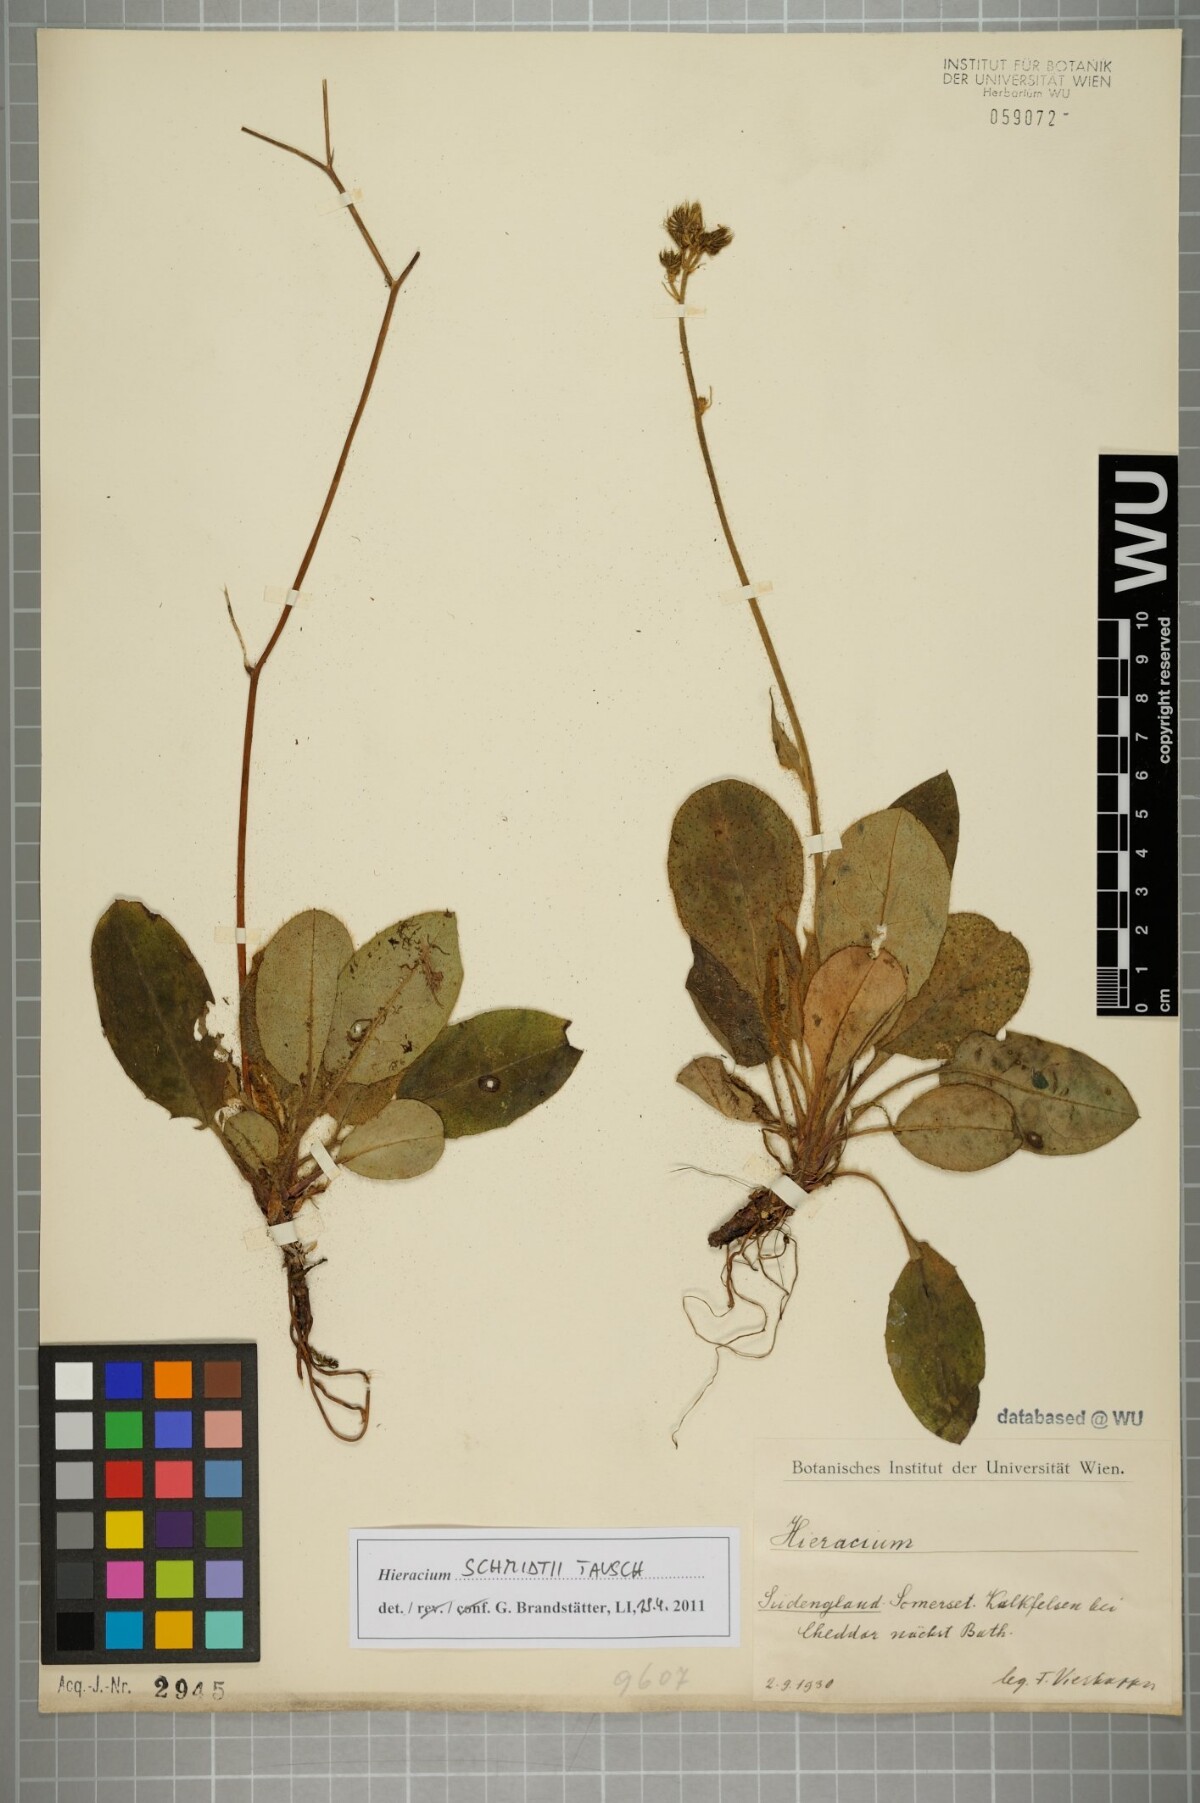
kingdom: Plantae
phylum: Tracheophyta
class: Magnoliopsida
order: Asterales
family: Asteraceae
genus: Hieracium
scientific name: Hieracium schmidtii
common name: Schmidt's hawkweed
